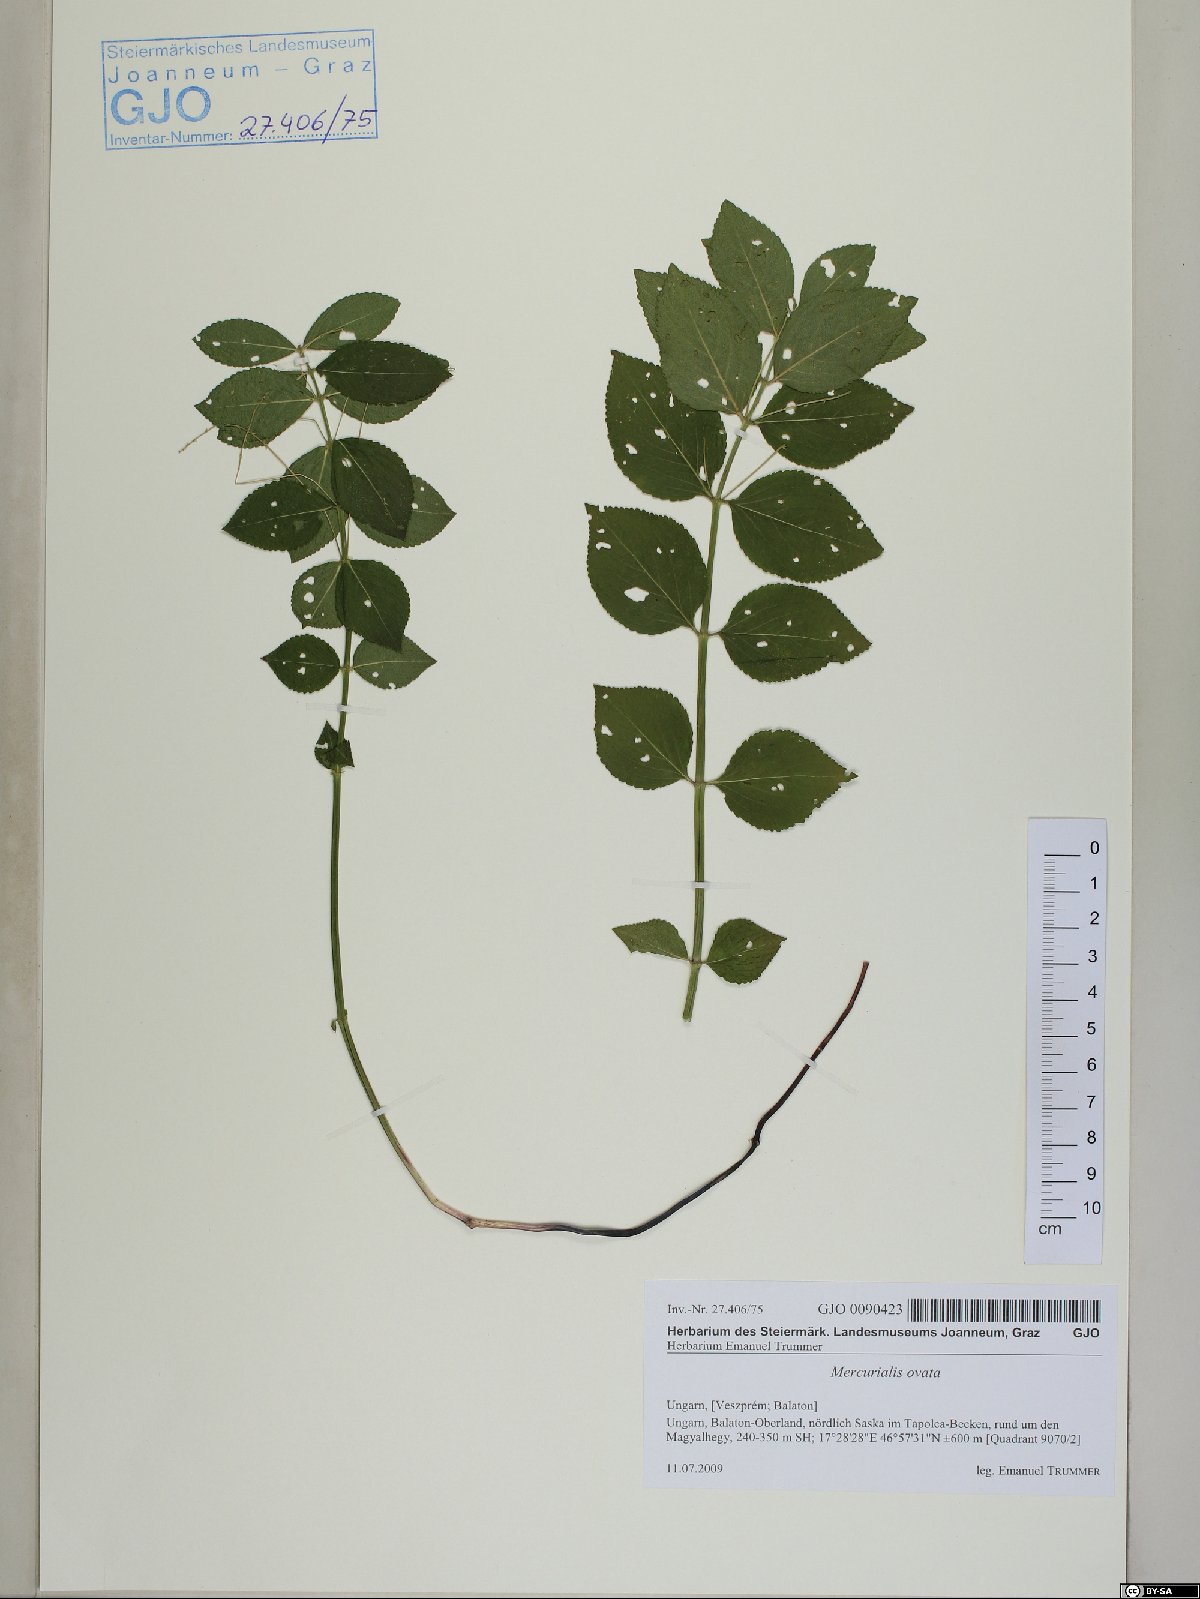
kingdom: Plantae
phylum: Tracheophyta
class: Magnoliopsida
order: Malpighiales
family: Euphorbiaceae
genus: Mercurialis
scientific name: Mercurialis ovata
